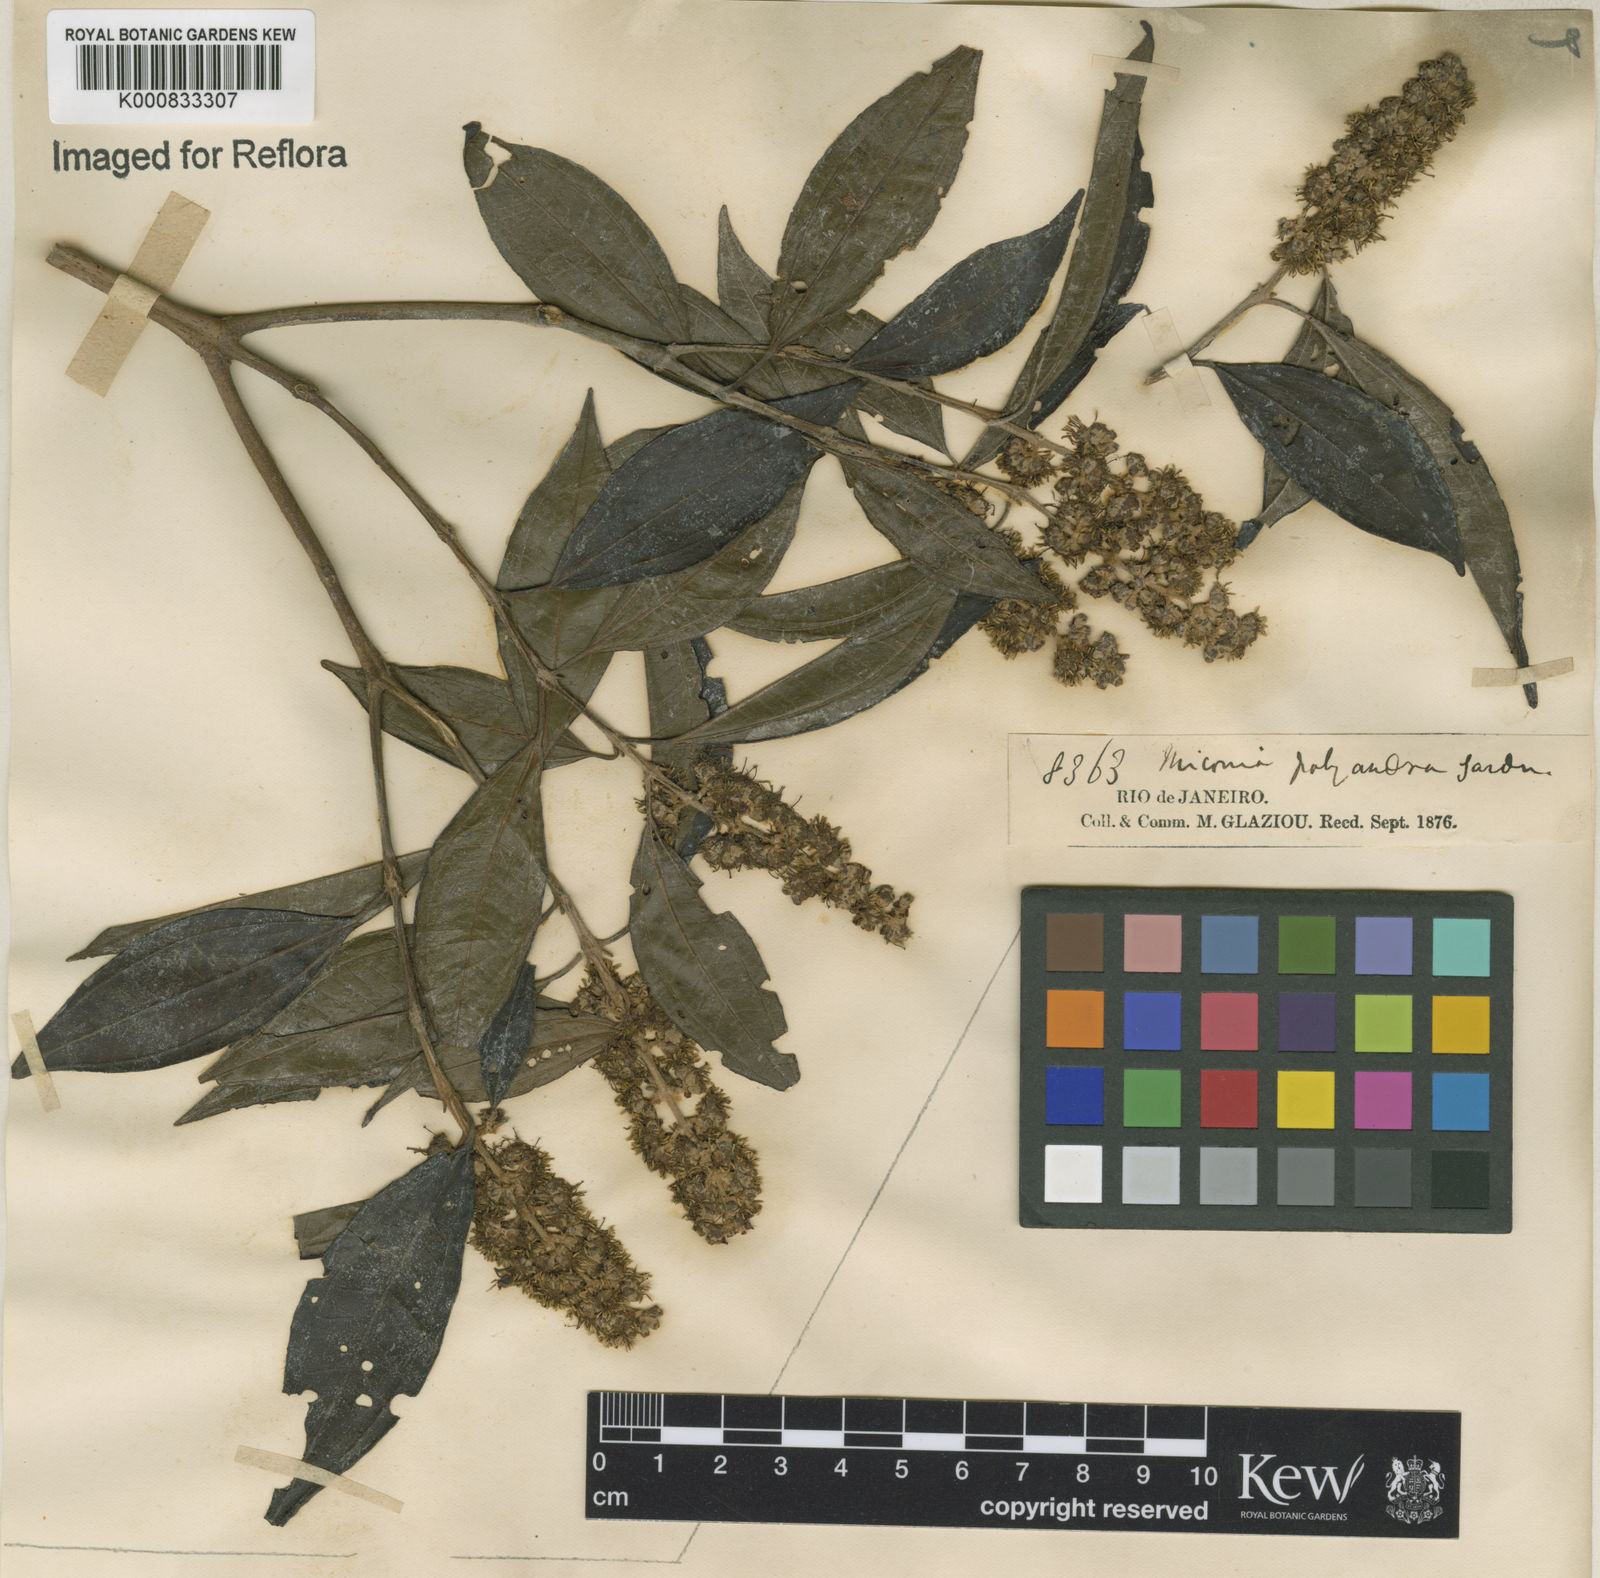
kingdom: Plantae
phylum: Tracheophyta
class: Magnoliopsida
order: Myrtales
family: Melastomataceae
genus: Miconia
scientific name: Miconia polyandra
